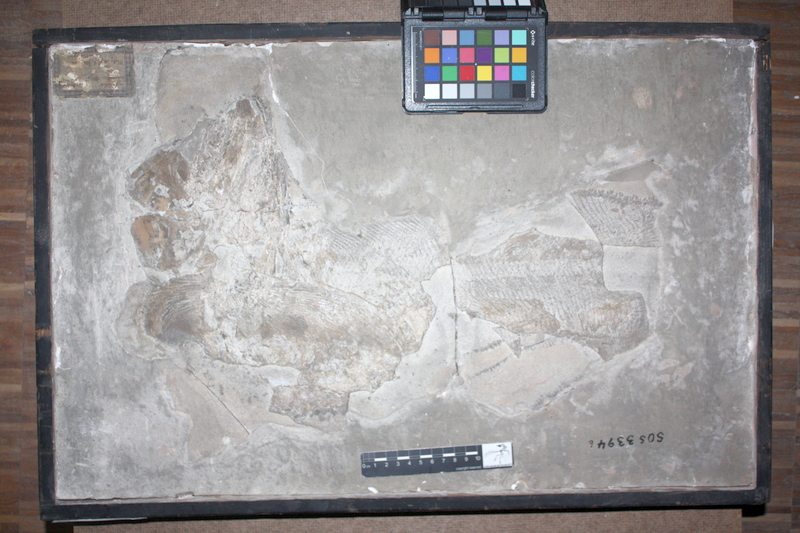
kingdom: Animalia
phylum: Chordata
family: Pachycormidae
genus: Simocormus
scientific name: Simocormus macrolepidotus
